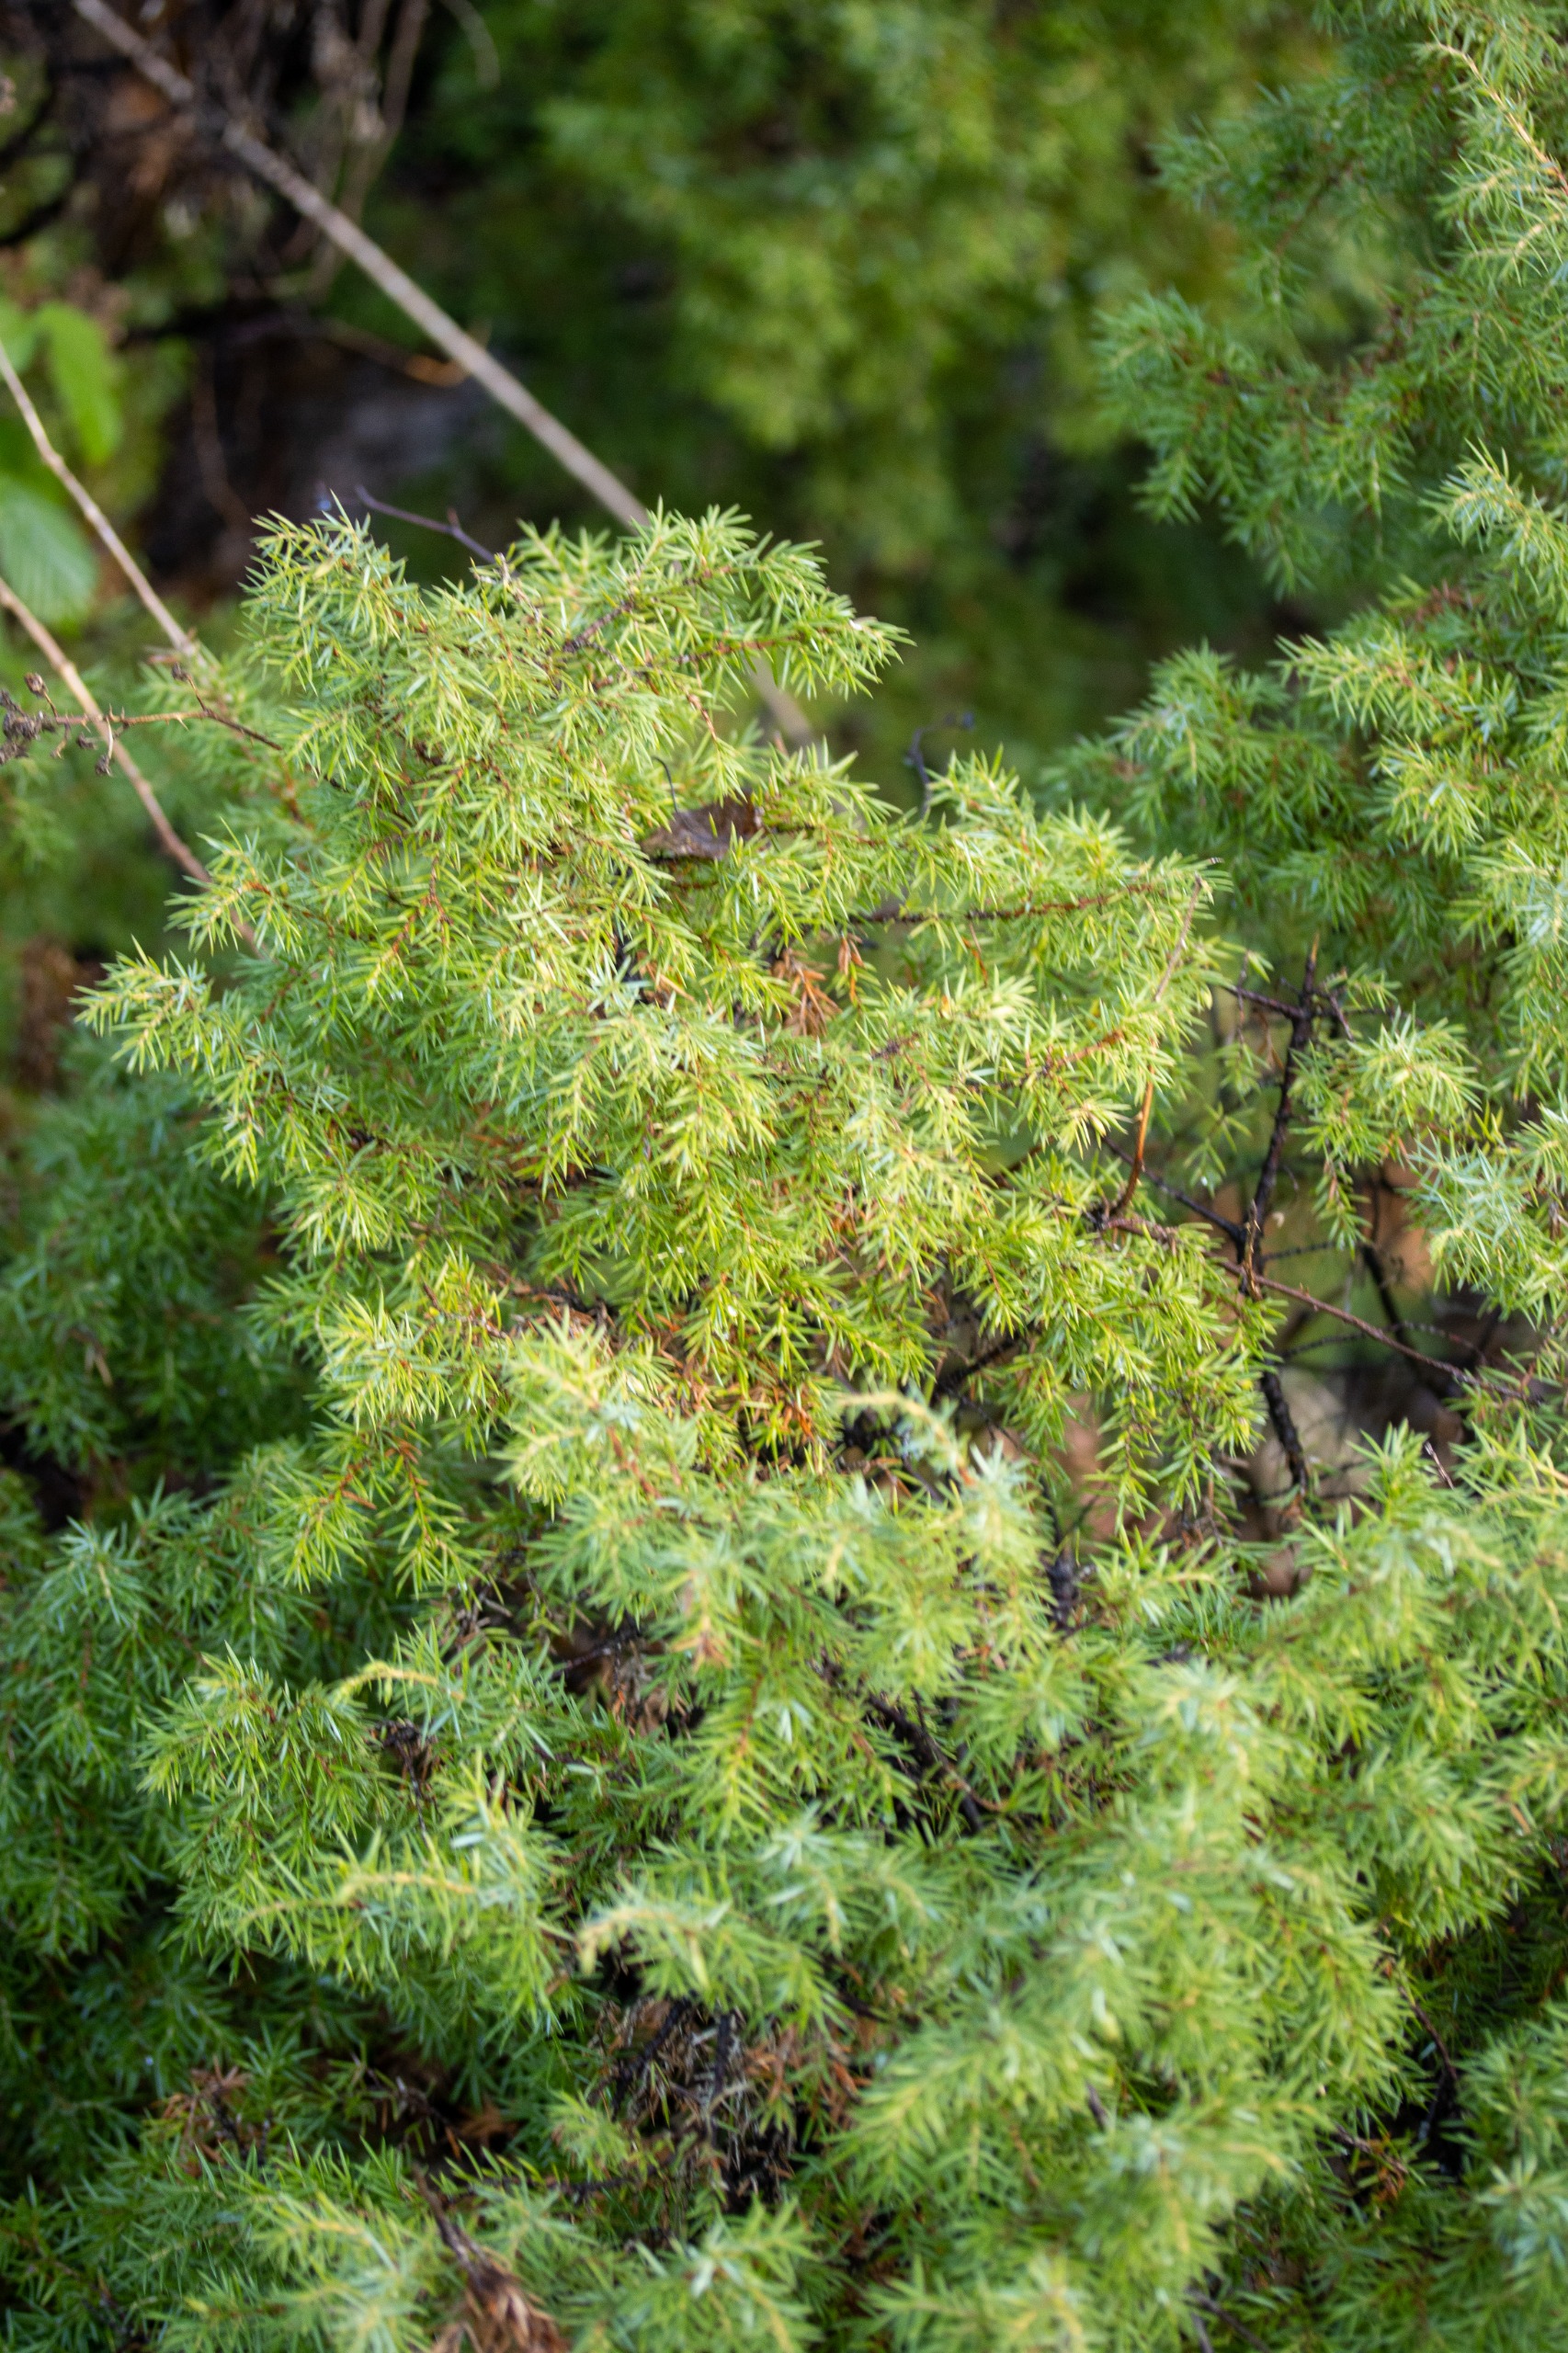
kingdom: Plantae
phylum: Tracheophyta
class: Pinopsida
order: Pinales
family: Cupressaceae
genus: Juniperus
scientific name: Juniperus communis
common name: Almindelig ene
